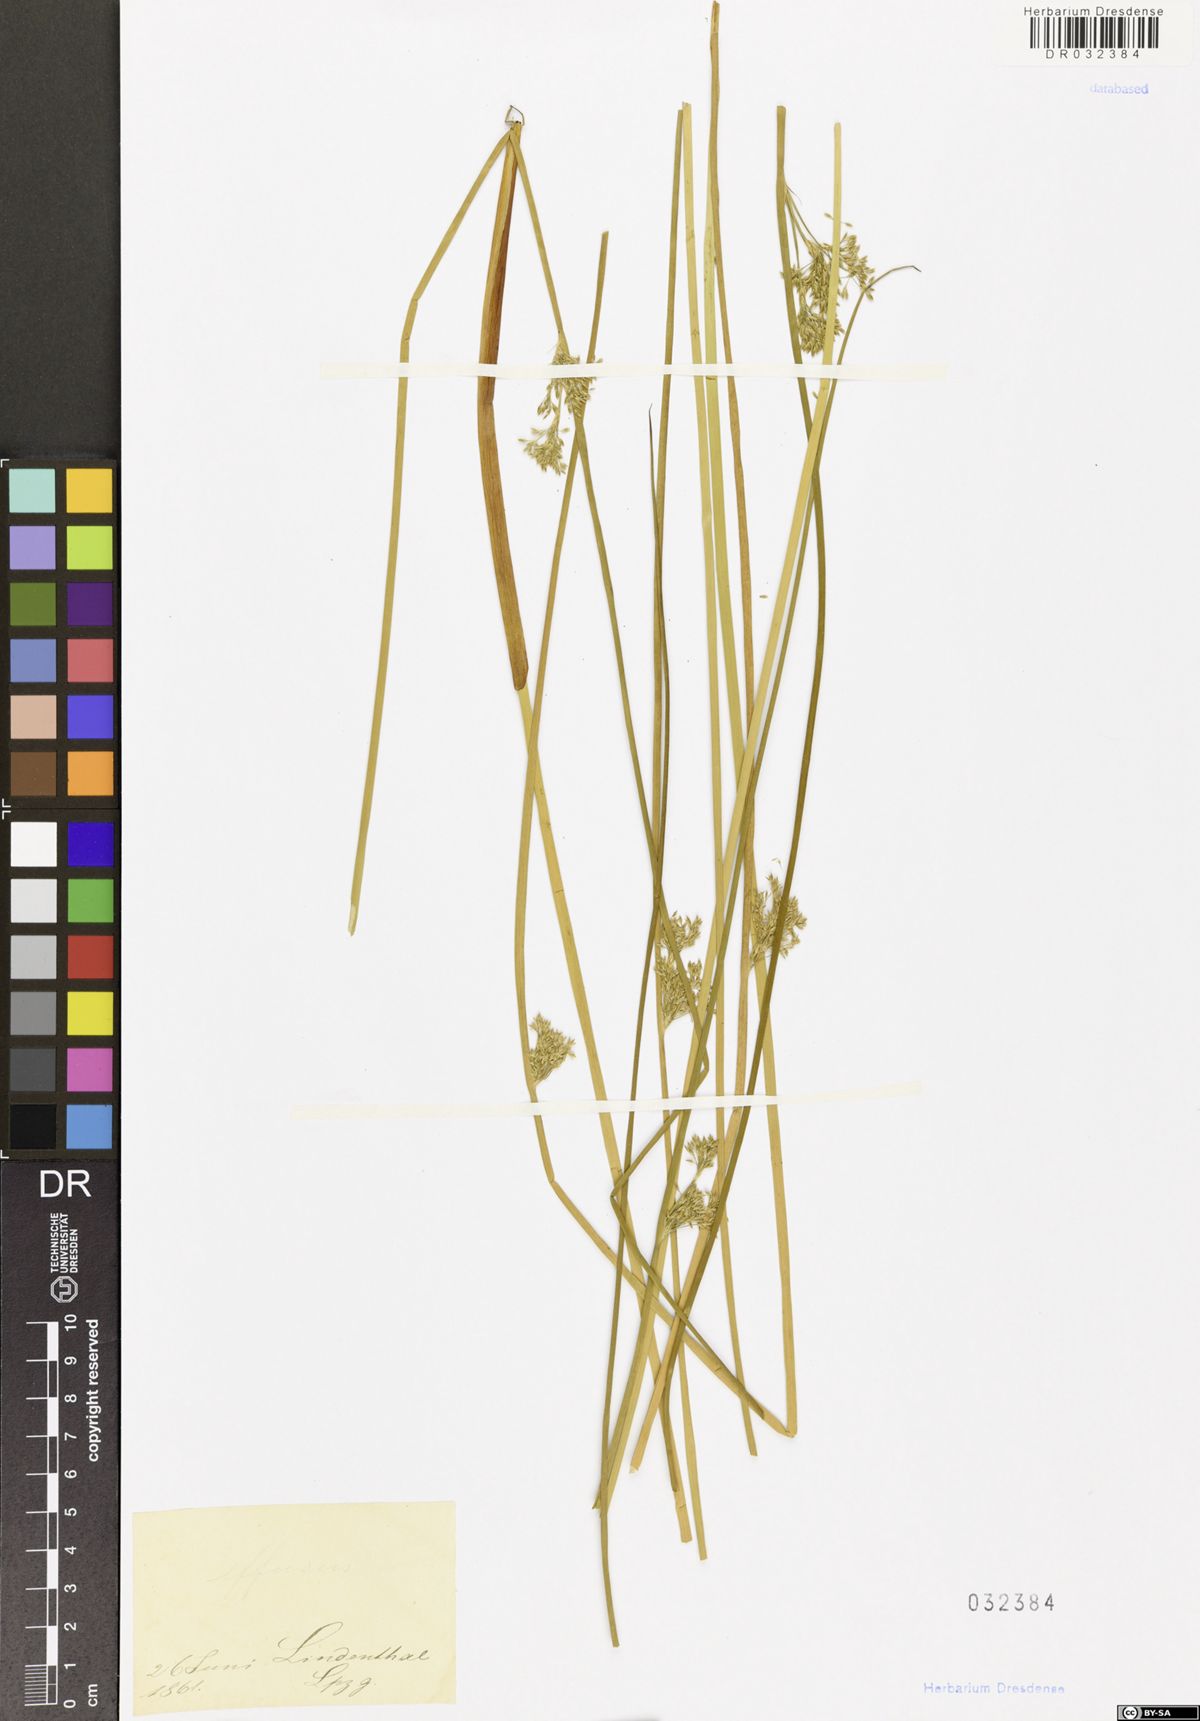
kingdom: Plantae
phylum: Tracheophyta
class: Liliopsida
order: Poales
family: Juncaceae
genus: Juncus
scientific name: Juncus effusus
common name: Soft rush
